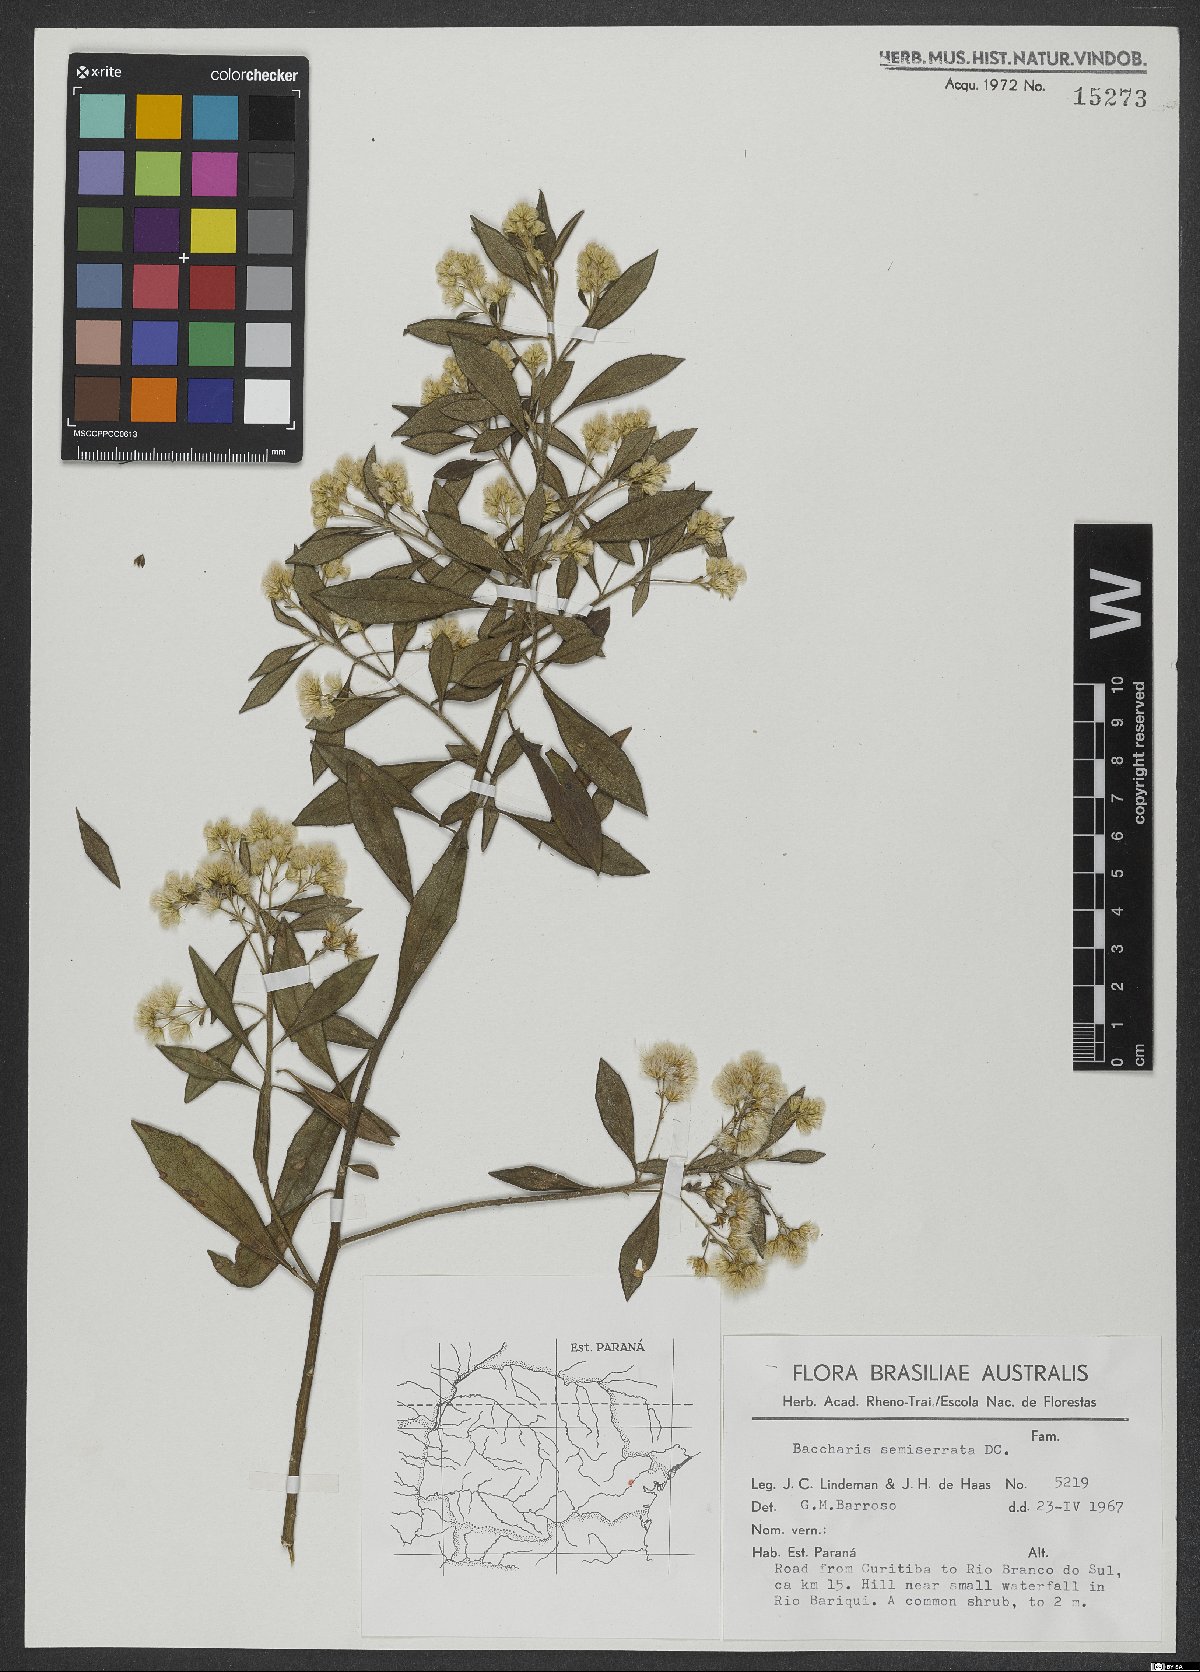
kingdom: Plantae
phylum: Tracheophyta
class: Magnoliopsida
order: Asterales
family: Asteraceae
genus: Baccharis
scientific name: Baccharis gnidiifolia
